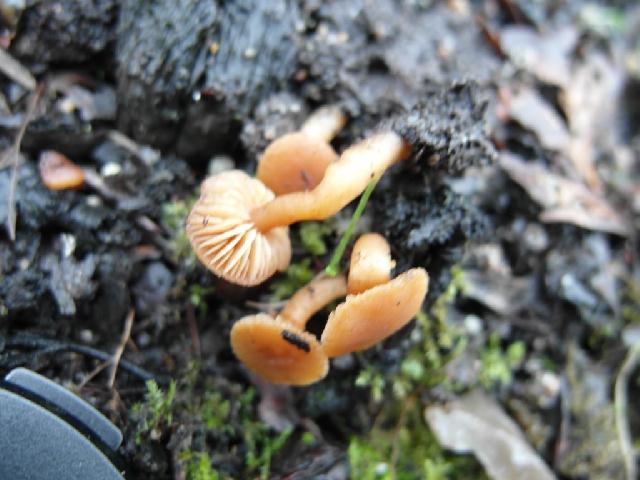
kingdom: Fungi
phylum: Basidiomycota
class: Agaricomycetes
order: Agaricales
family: Tubariaceae
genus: Tubaria
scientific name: Tubaria furfuracea
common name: kliddet fnughat
